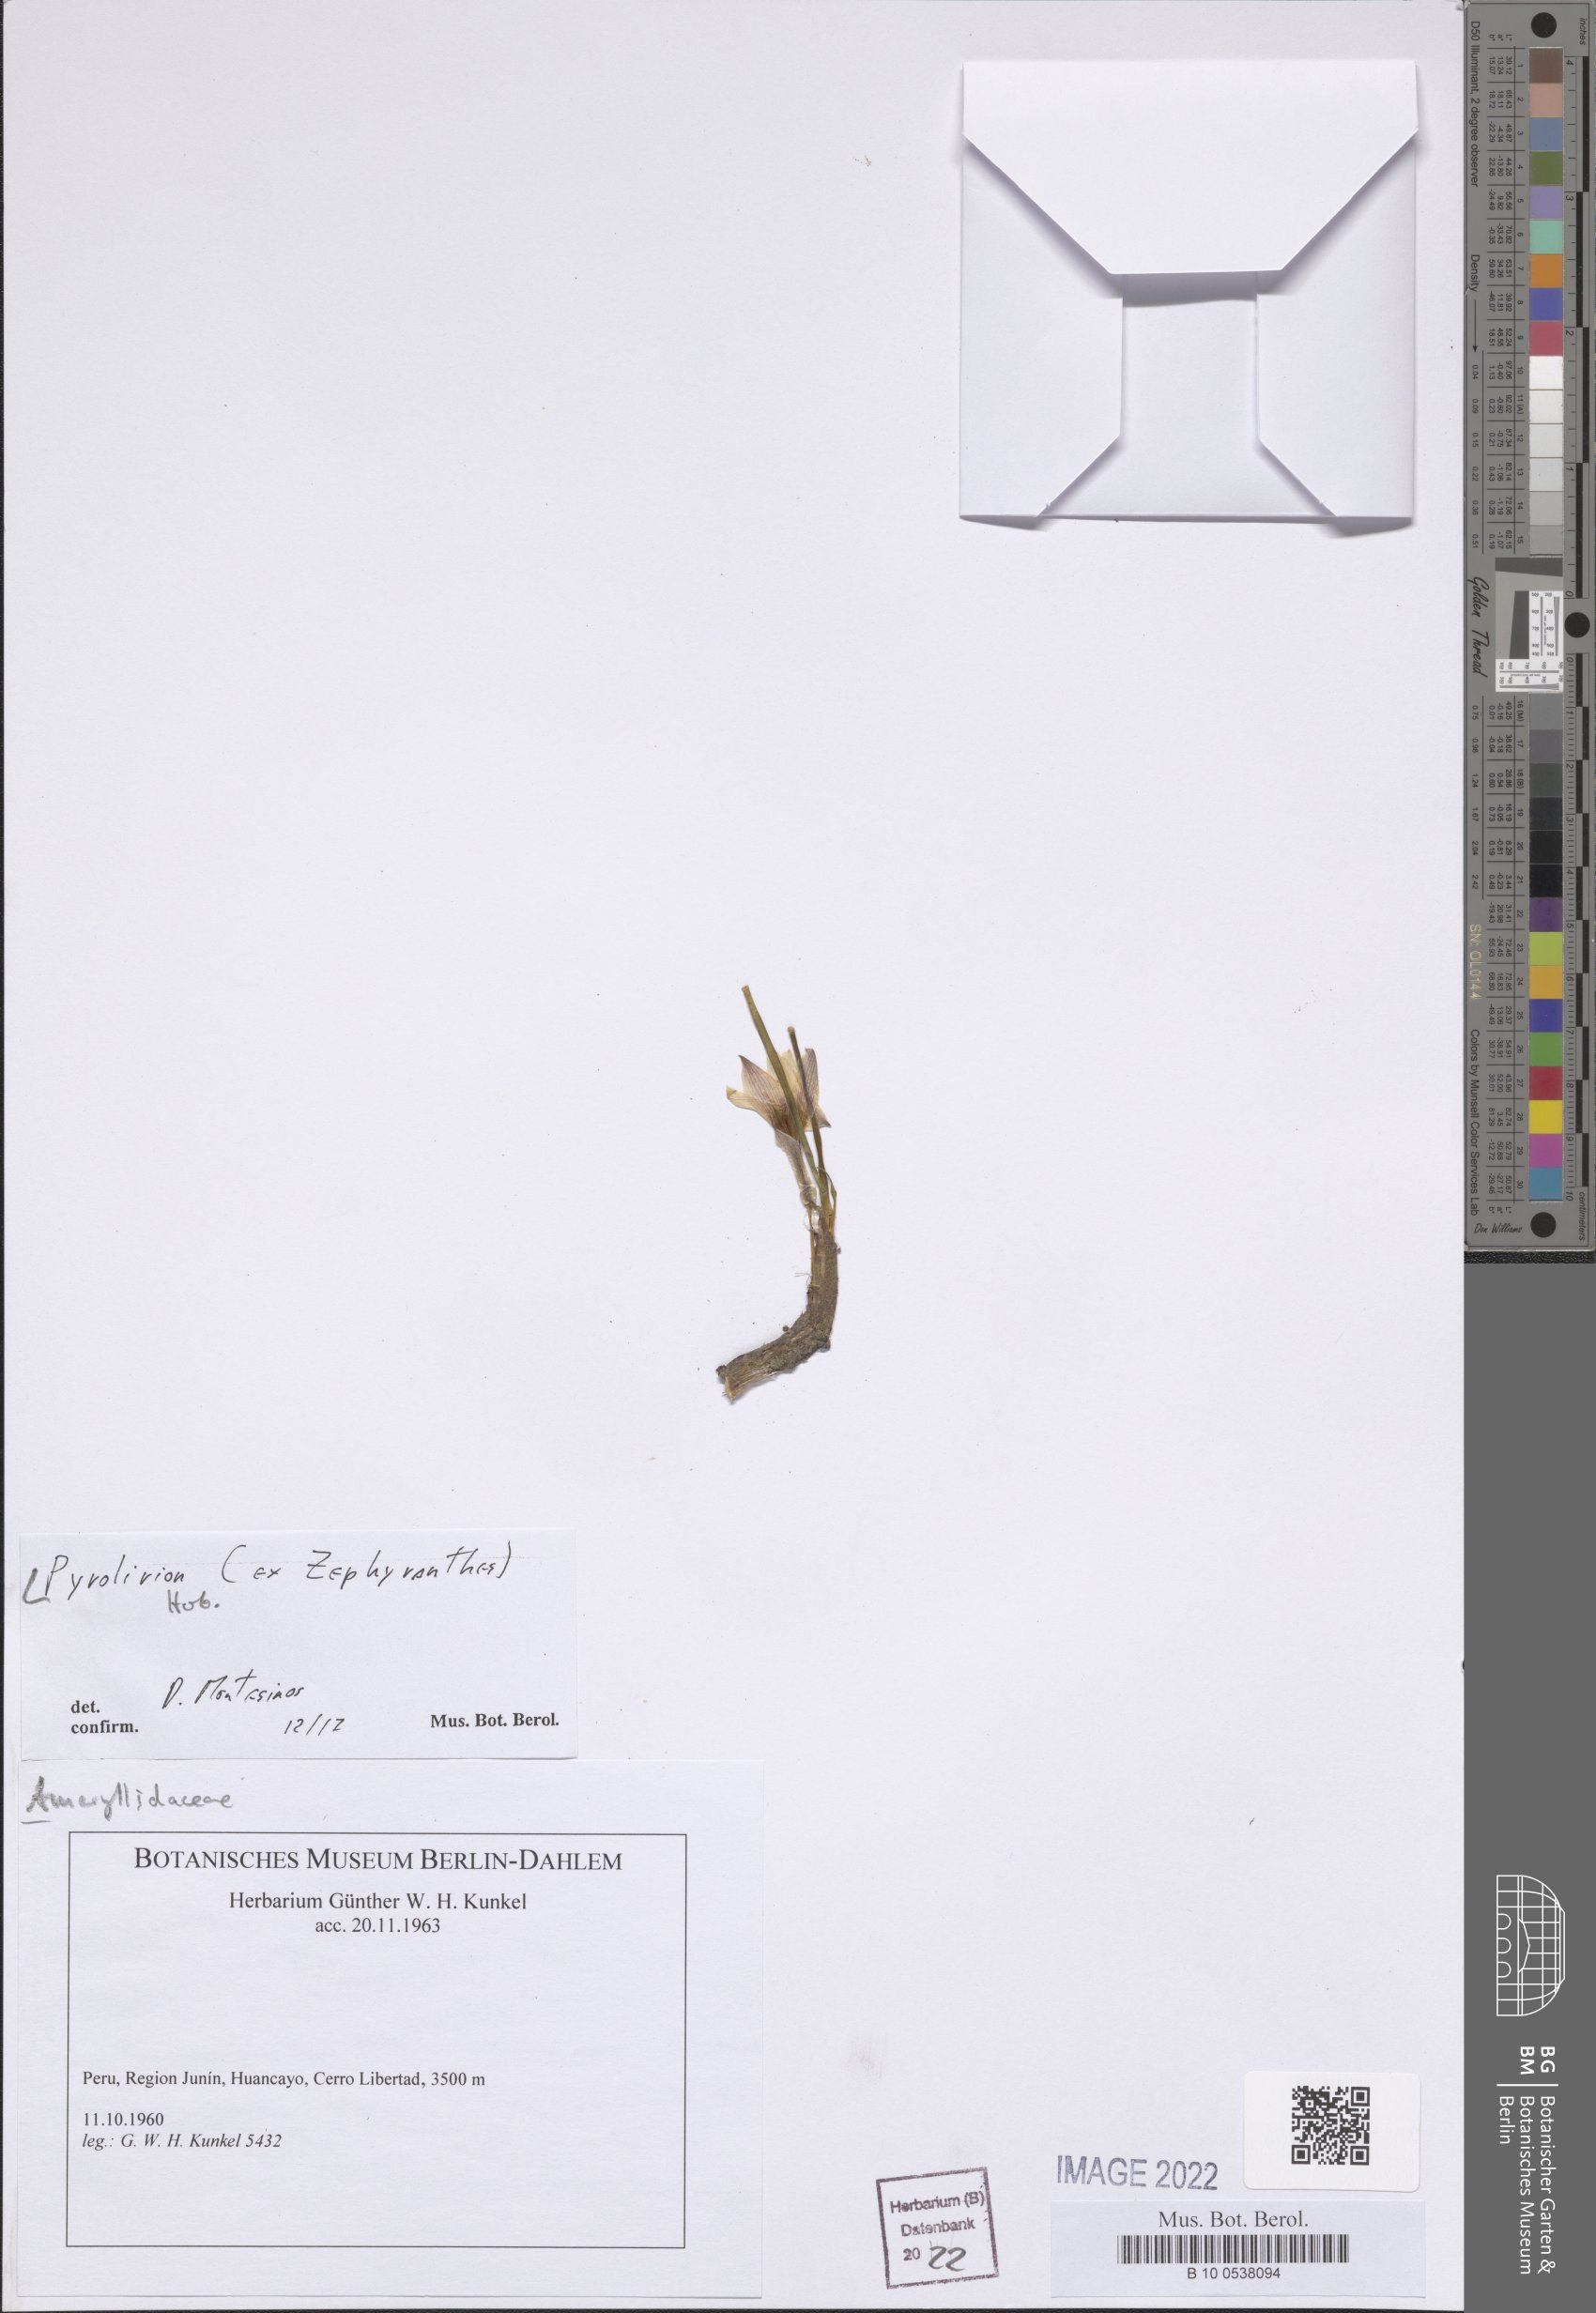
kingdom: Plantae
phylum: Tracheophyta
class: Liliopsida
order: Asparagales
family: Amaryllidaceae
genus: Zephyranthes
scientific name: Zephyranthes andina
